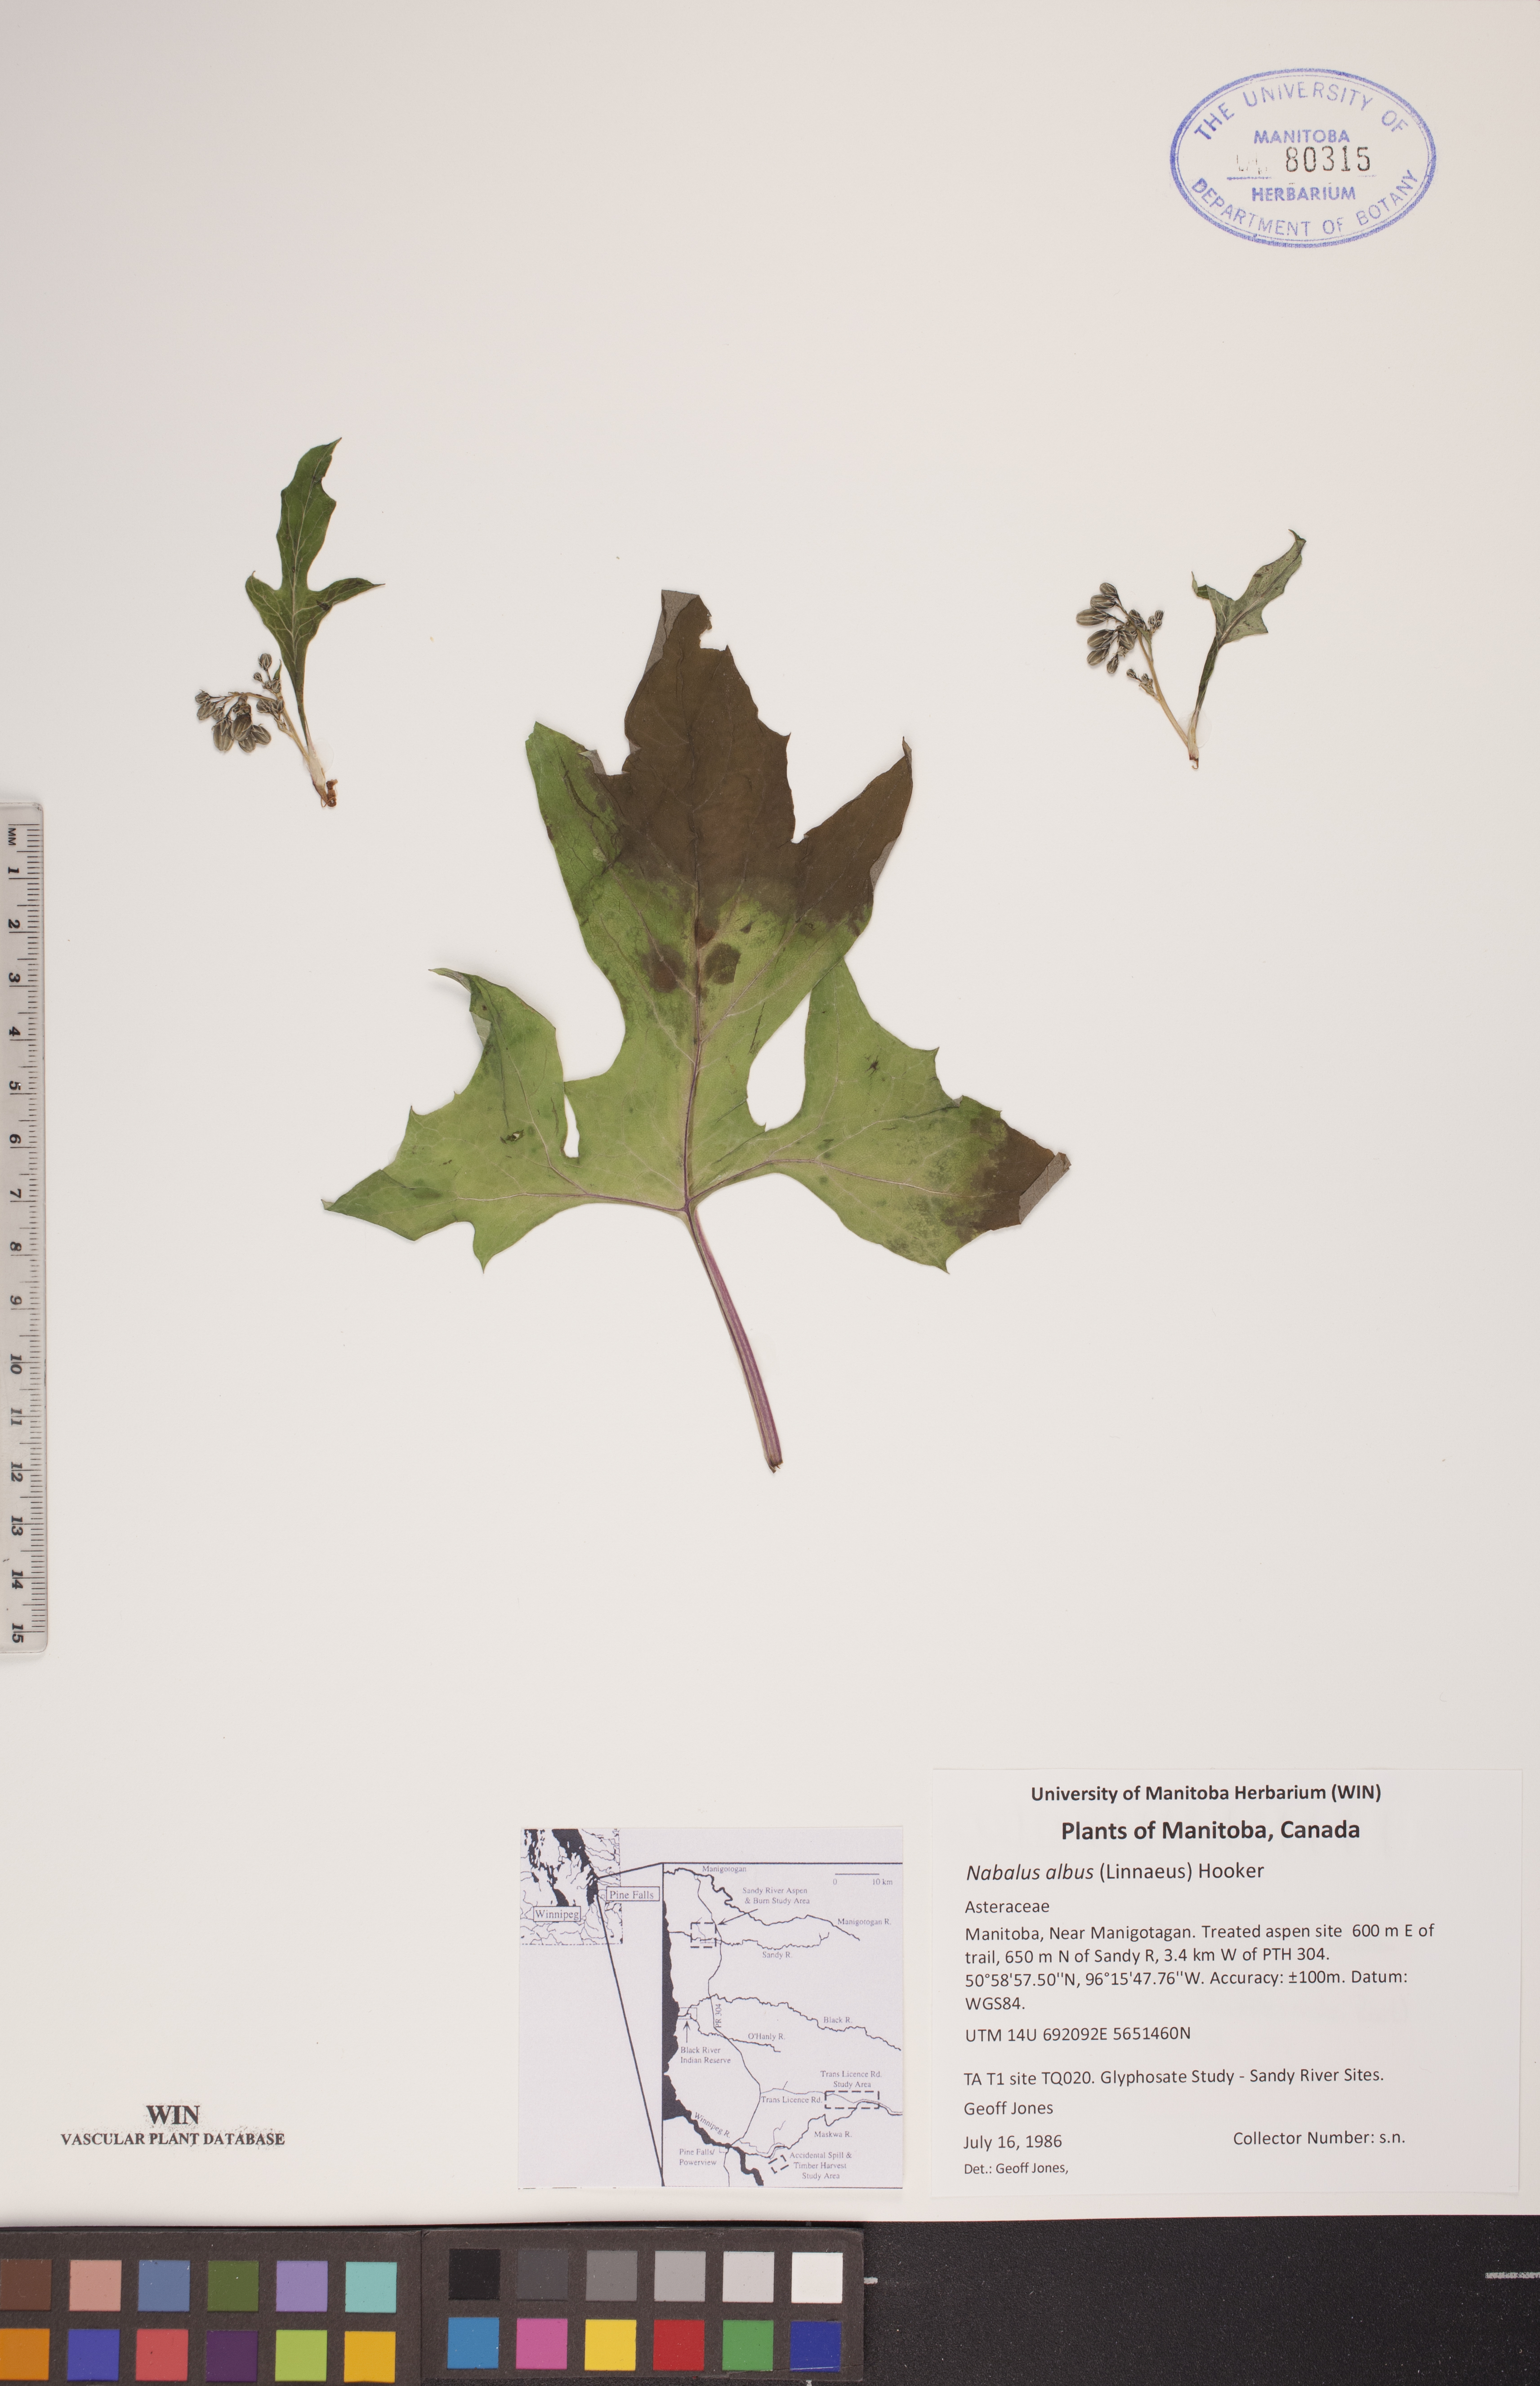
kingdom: Plantae
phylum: Tracheophyta
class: Magnoliopsida
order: Asterales
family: Asteraceae
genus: Nabalus
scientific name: Nabalus albus
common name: White rattlesnakeroot
